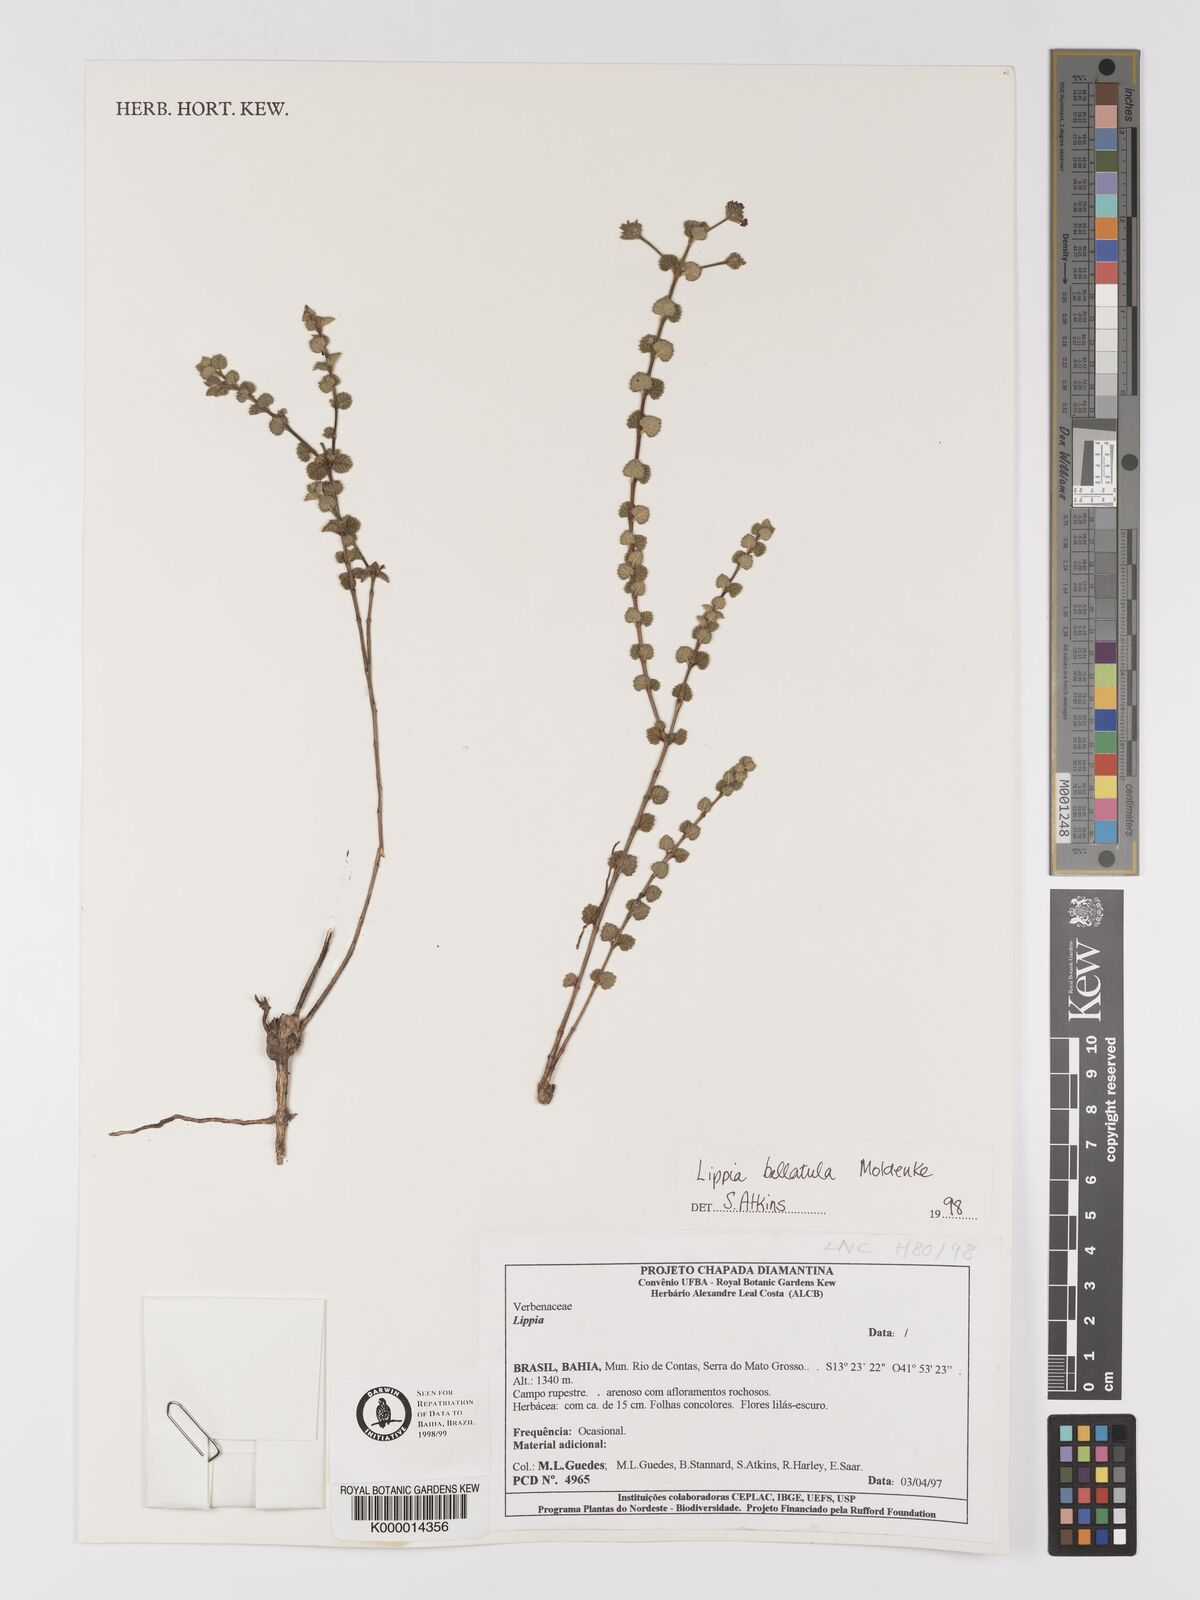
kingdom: Plantae
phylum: Tracheophyta
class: Magnoliopsida
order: Lamiales
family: Verbenaceae
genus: Lippia
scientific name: Lippia bellatula
